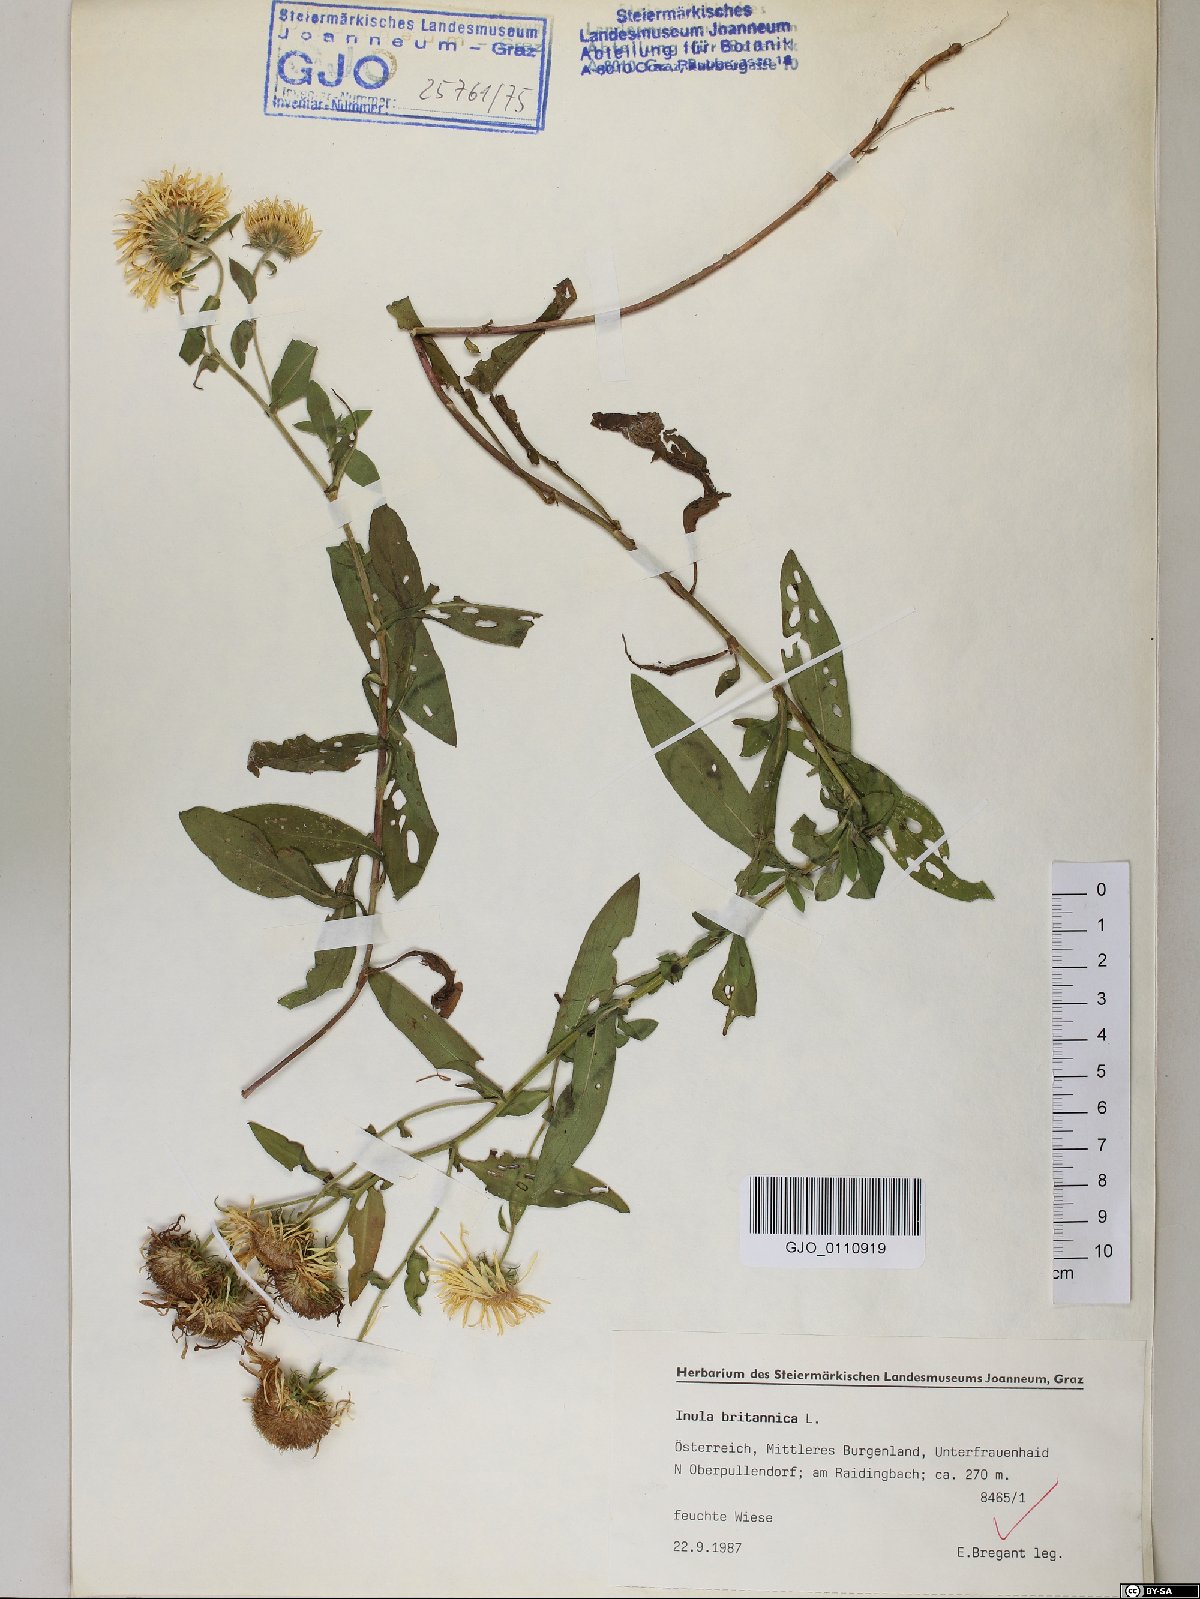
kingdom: Plantae
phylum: Tracheophyta
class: Magnoliopsida
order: Asterales
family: Asteraceae
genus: Pentanema
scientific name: Pentanema britannicum
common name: British elecampane
